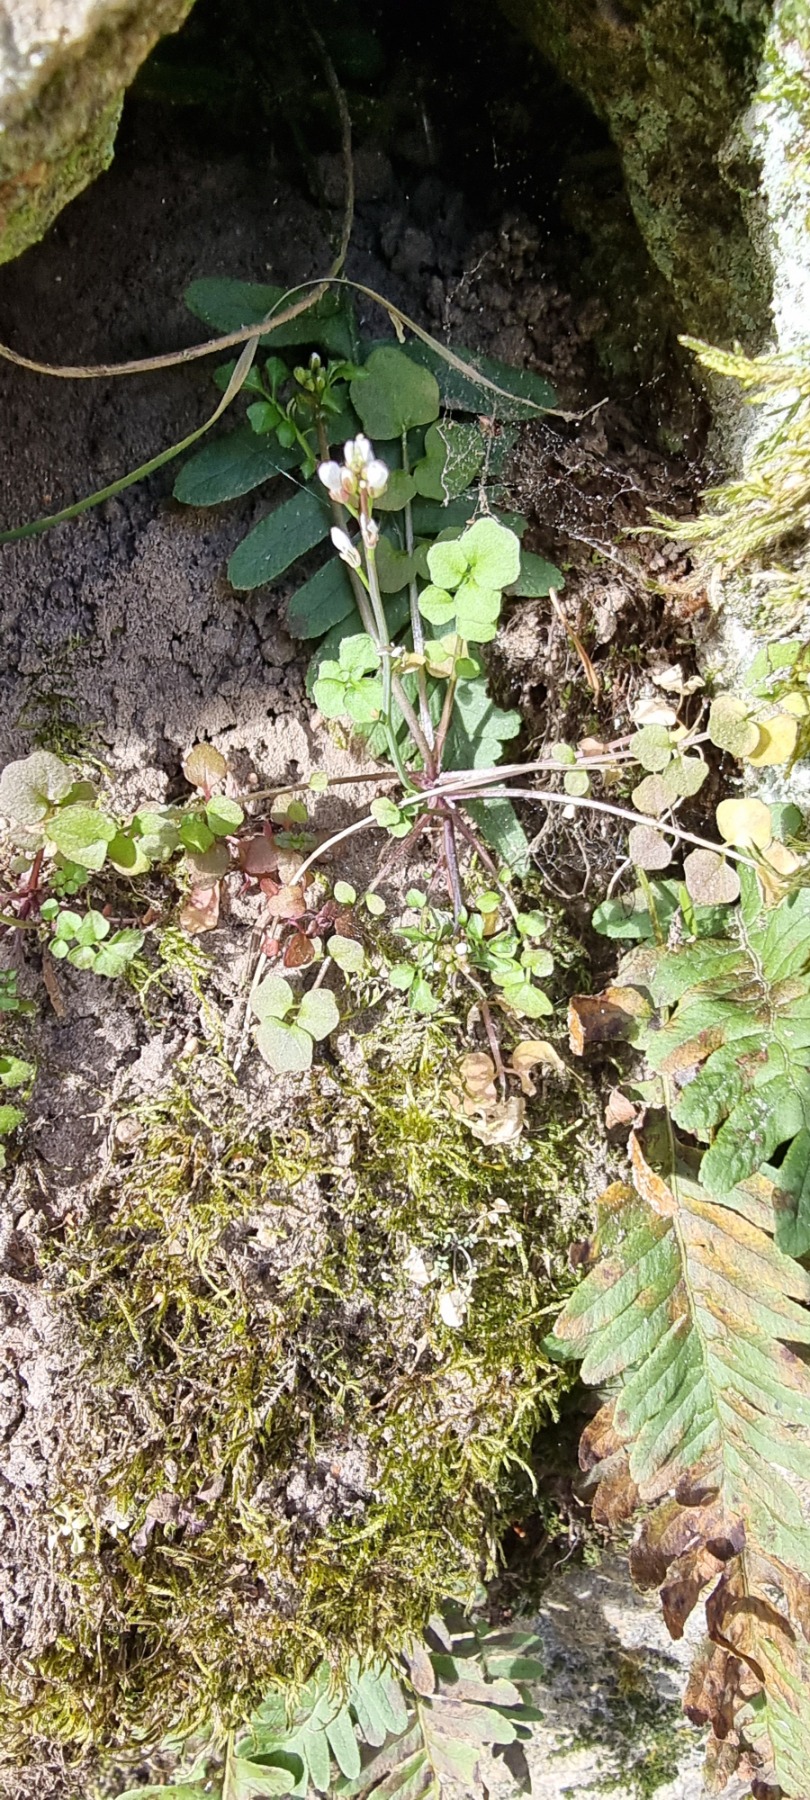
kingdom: Plantae
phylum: Tracheophyta
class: Magnoliopsida
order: Brassicales
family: Brassicaceae
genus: Cardamine
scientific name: Cardamine hirsuta
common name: Roset-springklap
